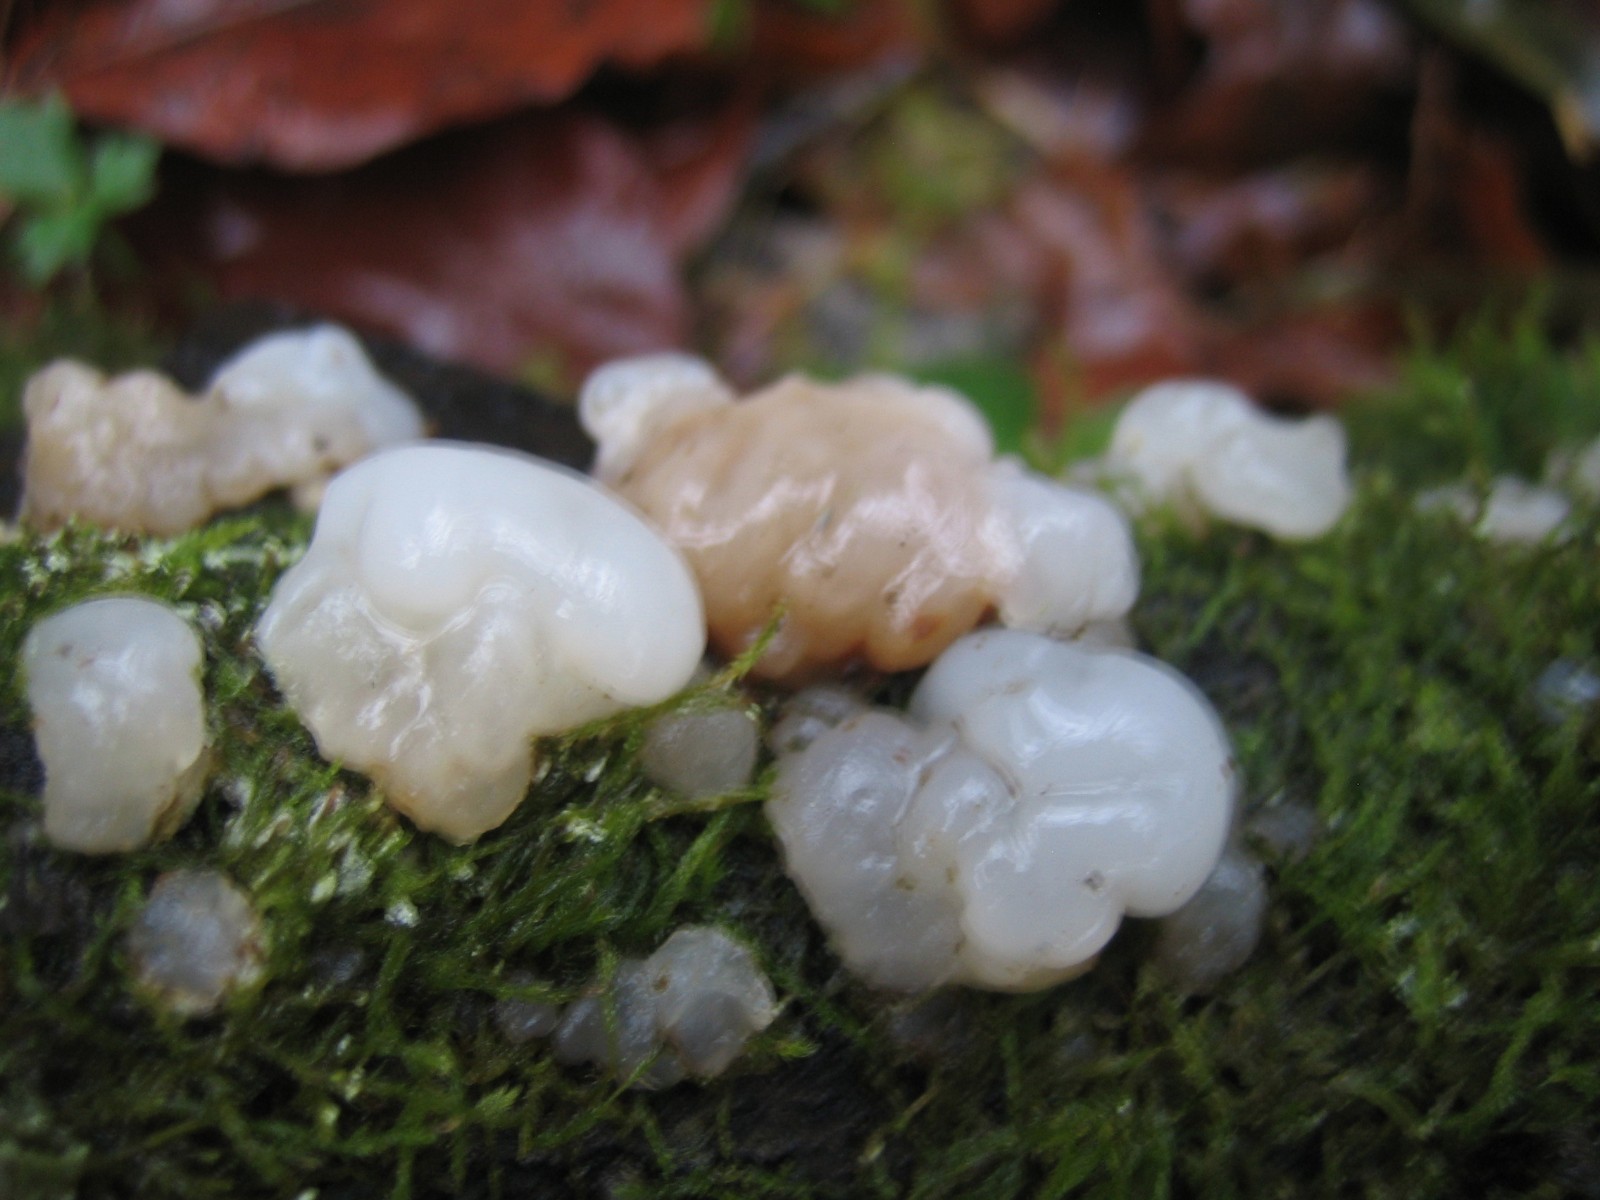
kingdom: Fungi
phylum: Basidiomycota
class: Agaricomycetes
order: Auriculariales
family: Auriculariaceae
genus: Exidia
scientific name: Exidia thuretiana
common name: hvidlig bævretop
